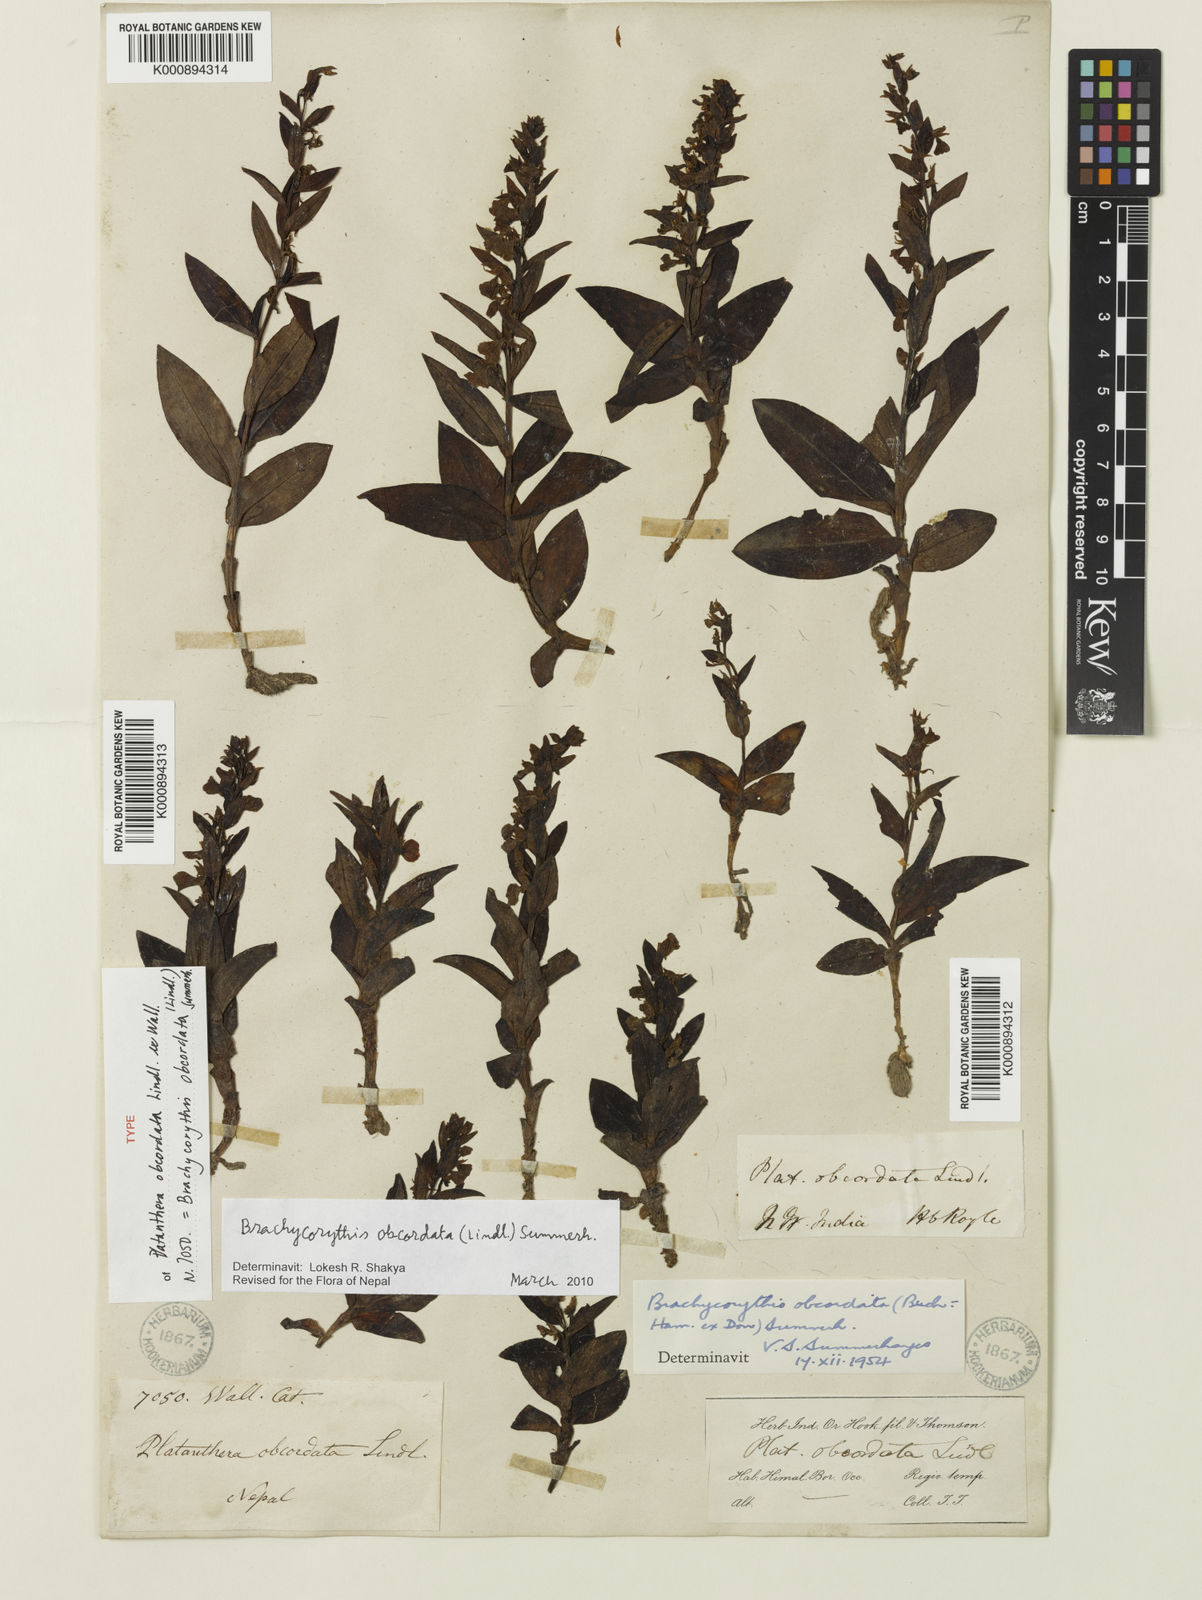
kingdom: Plantae
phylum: Tracheophyta
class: Liliopsida
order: Asparagales
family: Orchidaceae
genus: Platanthera
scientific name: Platanthera
